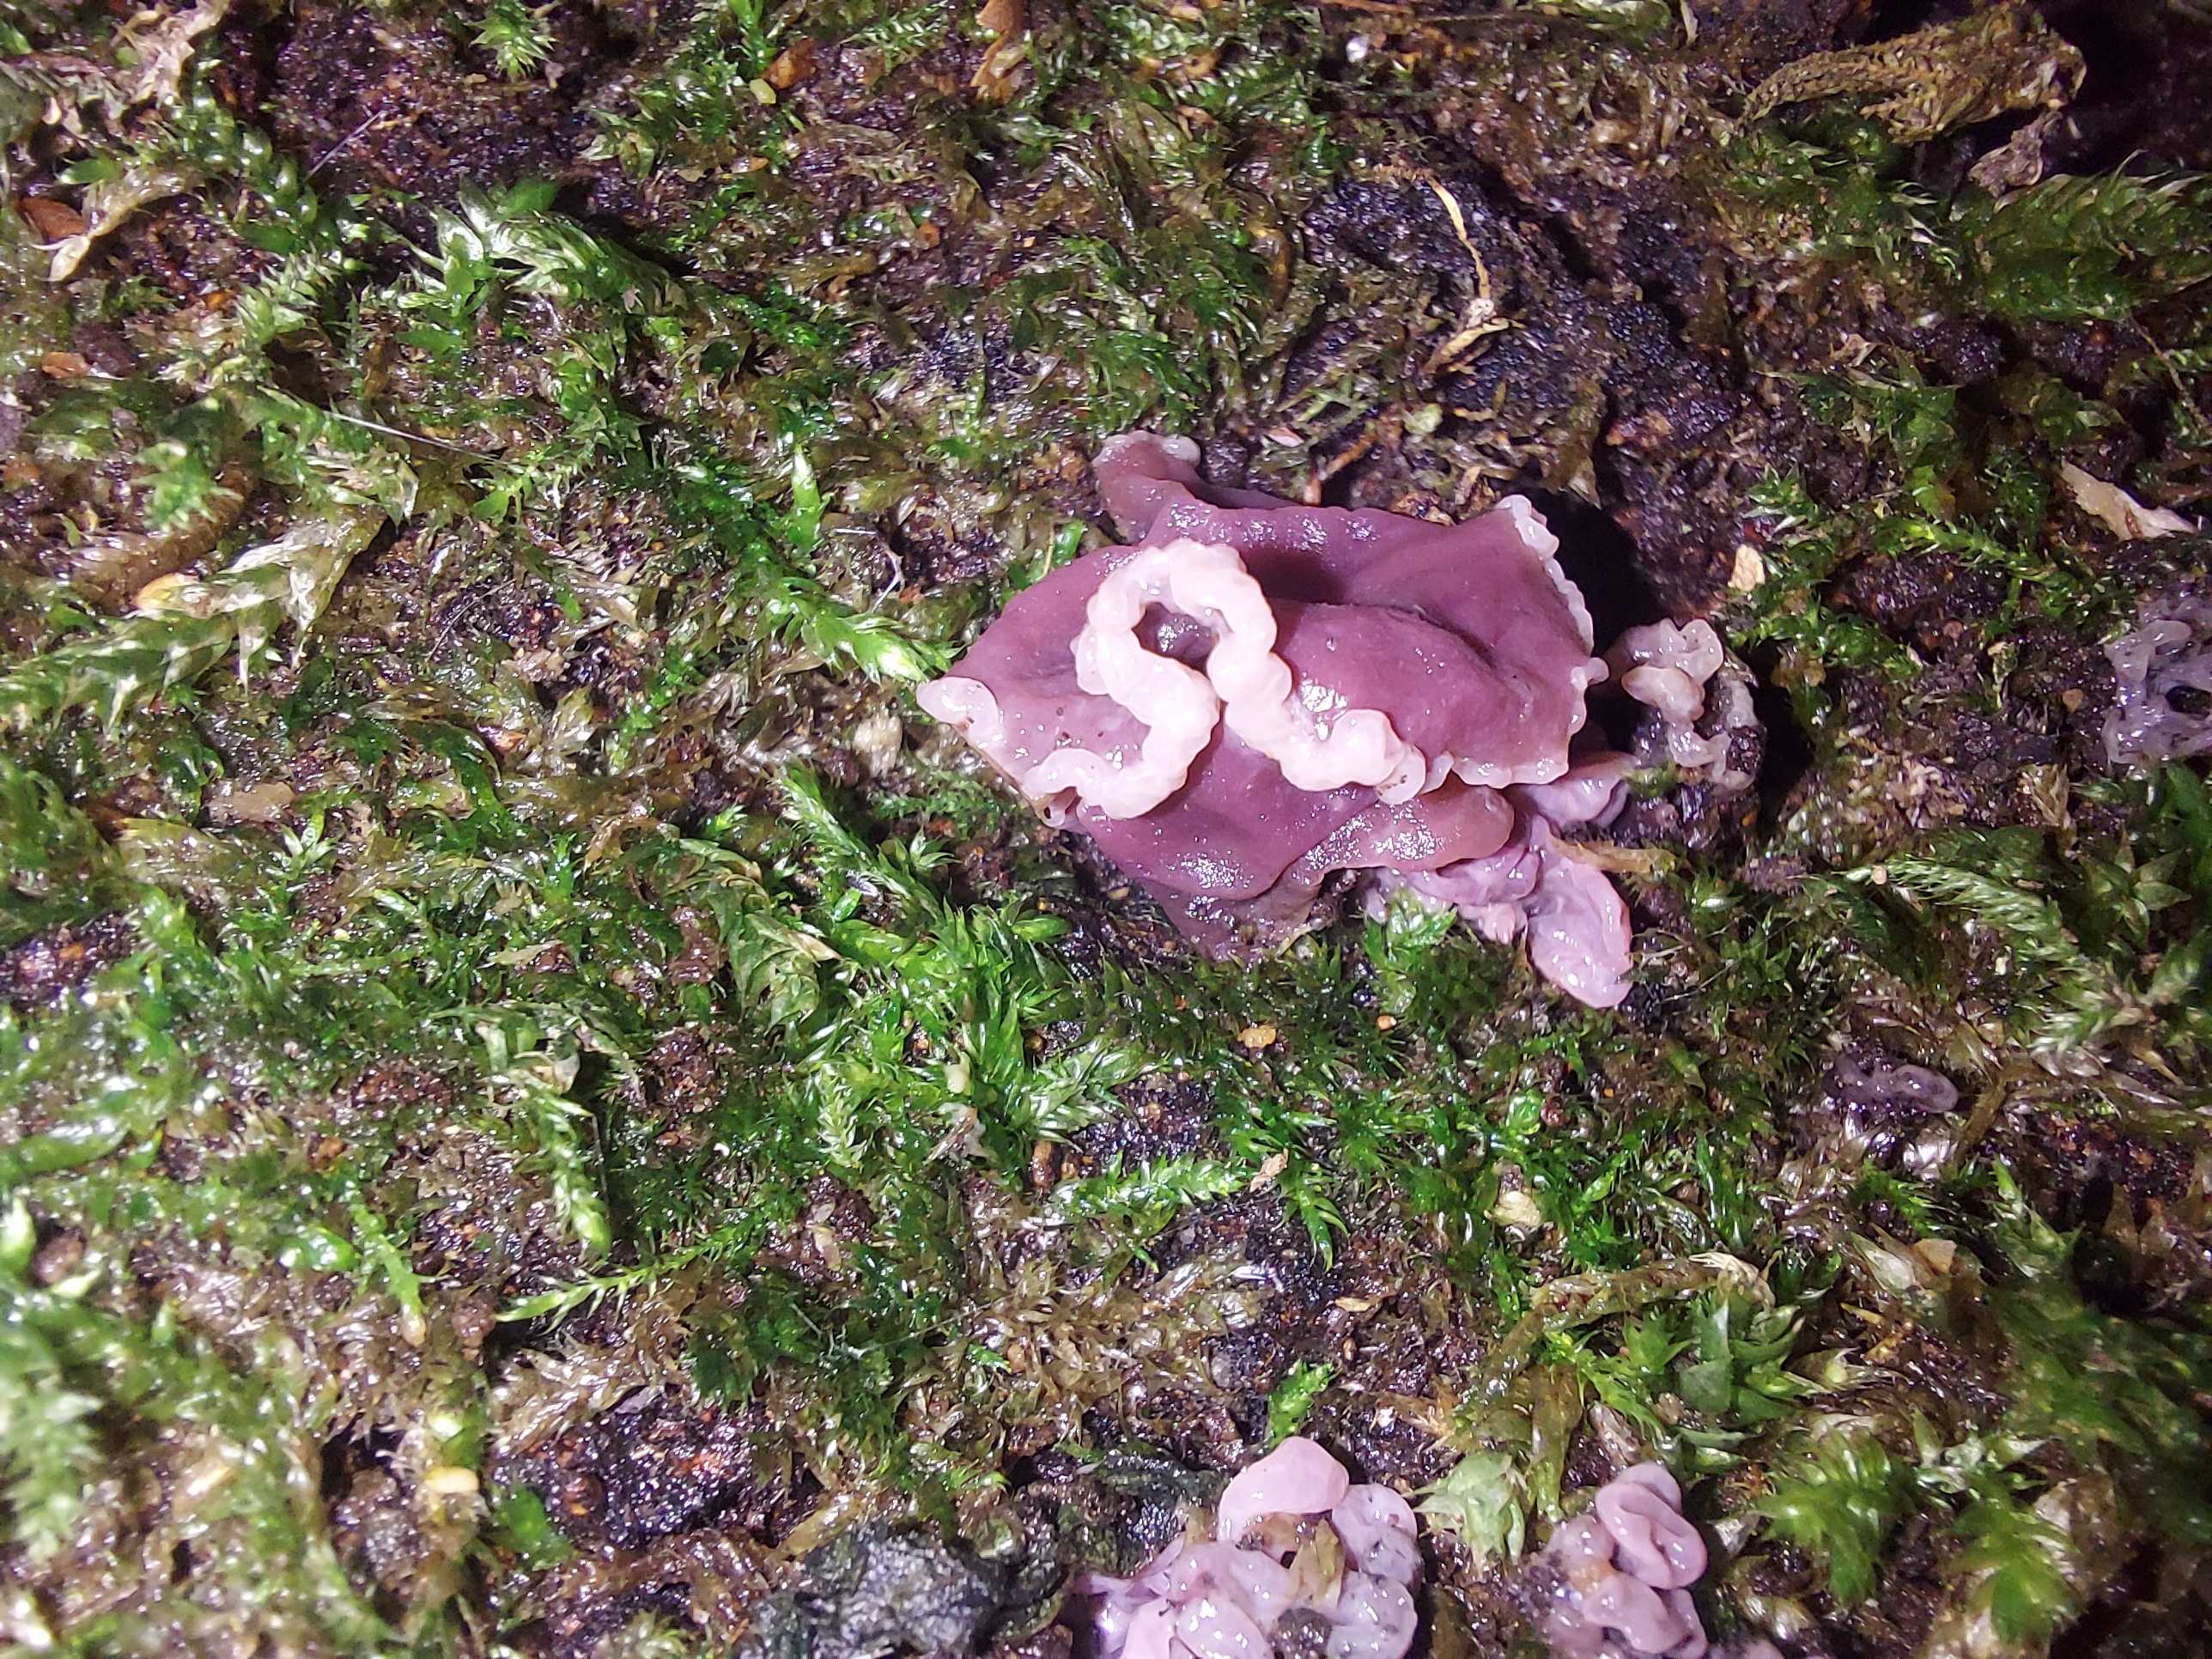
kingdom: Fungi
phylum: Ascomycota
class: Leotiomycetes
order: Helotiales
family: Gelatinodiscaceae
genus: Ascocoryne
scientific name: Ascocoryne sarcoides
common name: rødlilla sejskive
